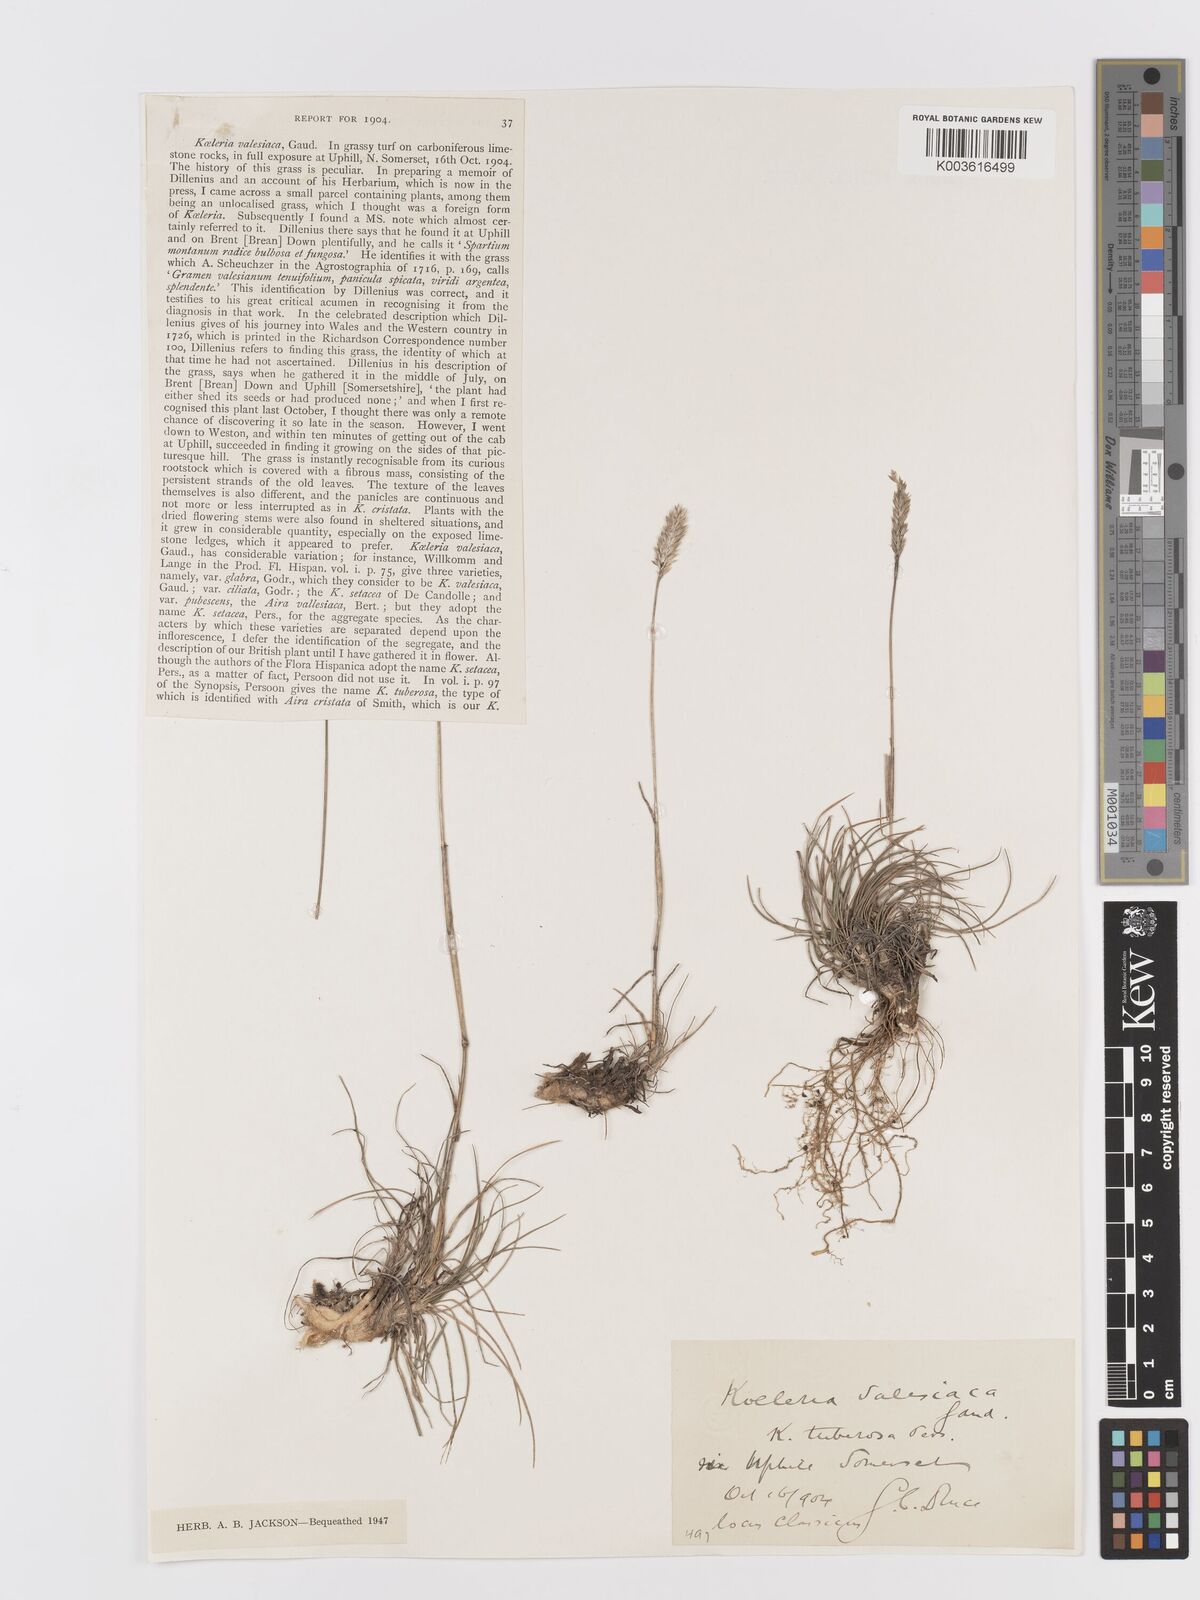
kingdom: Plantae
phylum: Tracheophyta
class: Liliopsida
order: Poales
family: Poaceae
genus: Koeleria
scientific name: Koeleria vallesiana
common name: Somerset hair-grass
